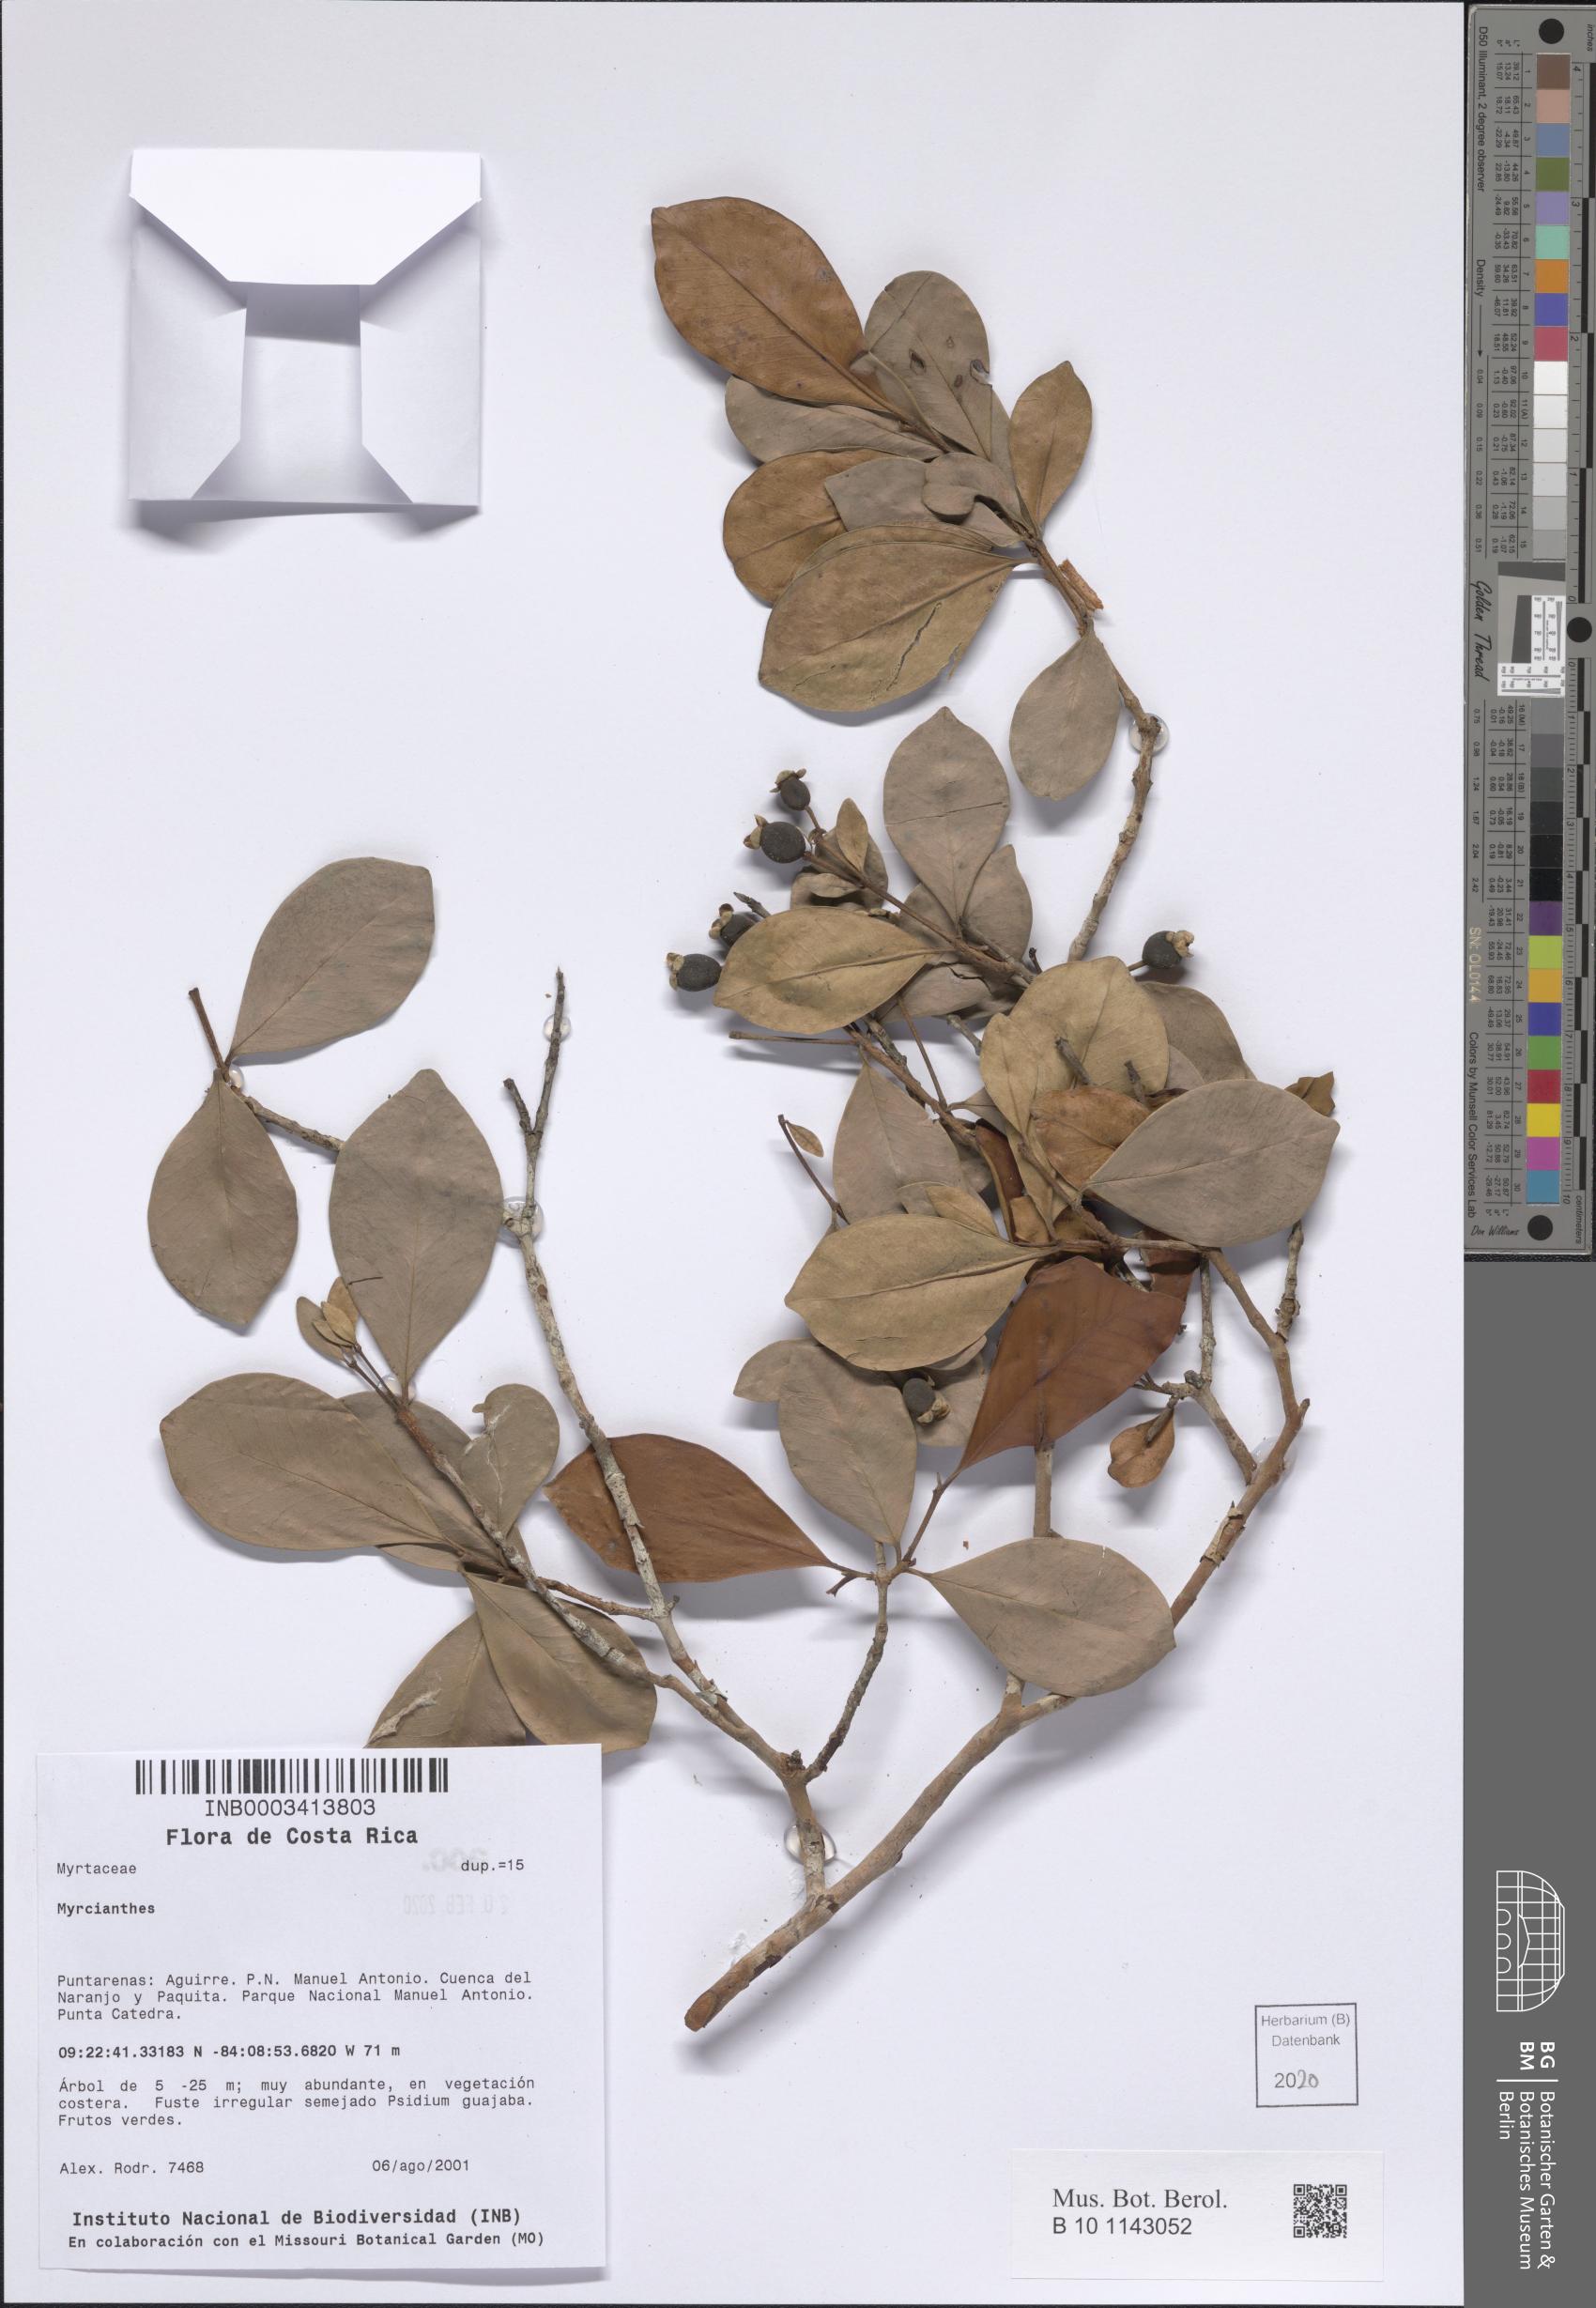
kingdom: Plantae
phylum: Tracheophyta
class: Magnoliopsida
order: Myrtales
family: Myrtaceae
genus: Myrcianthes
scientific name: Myrcianthes
